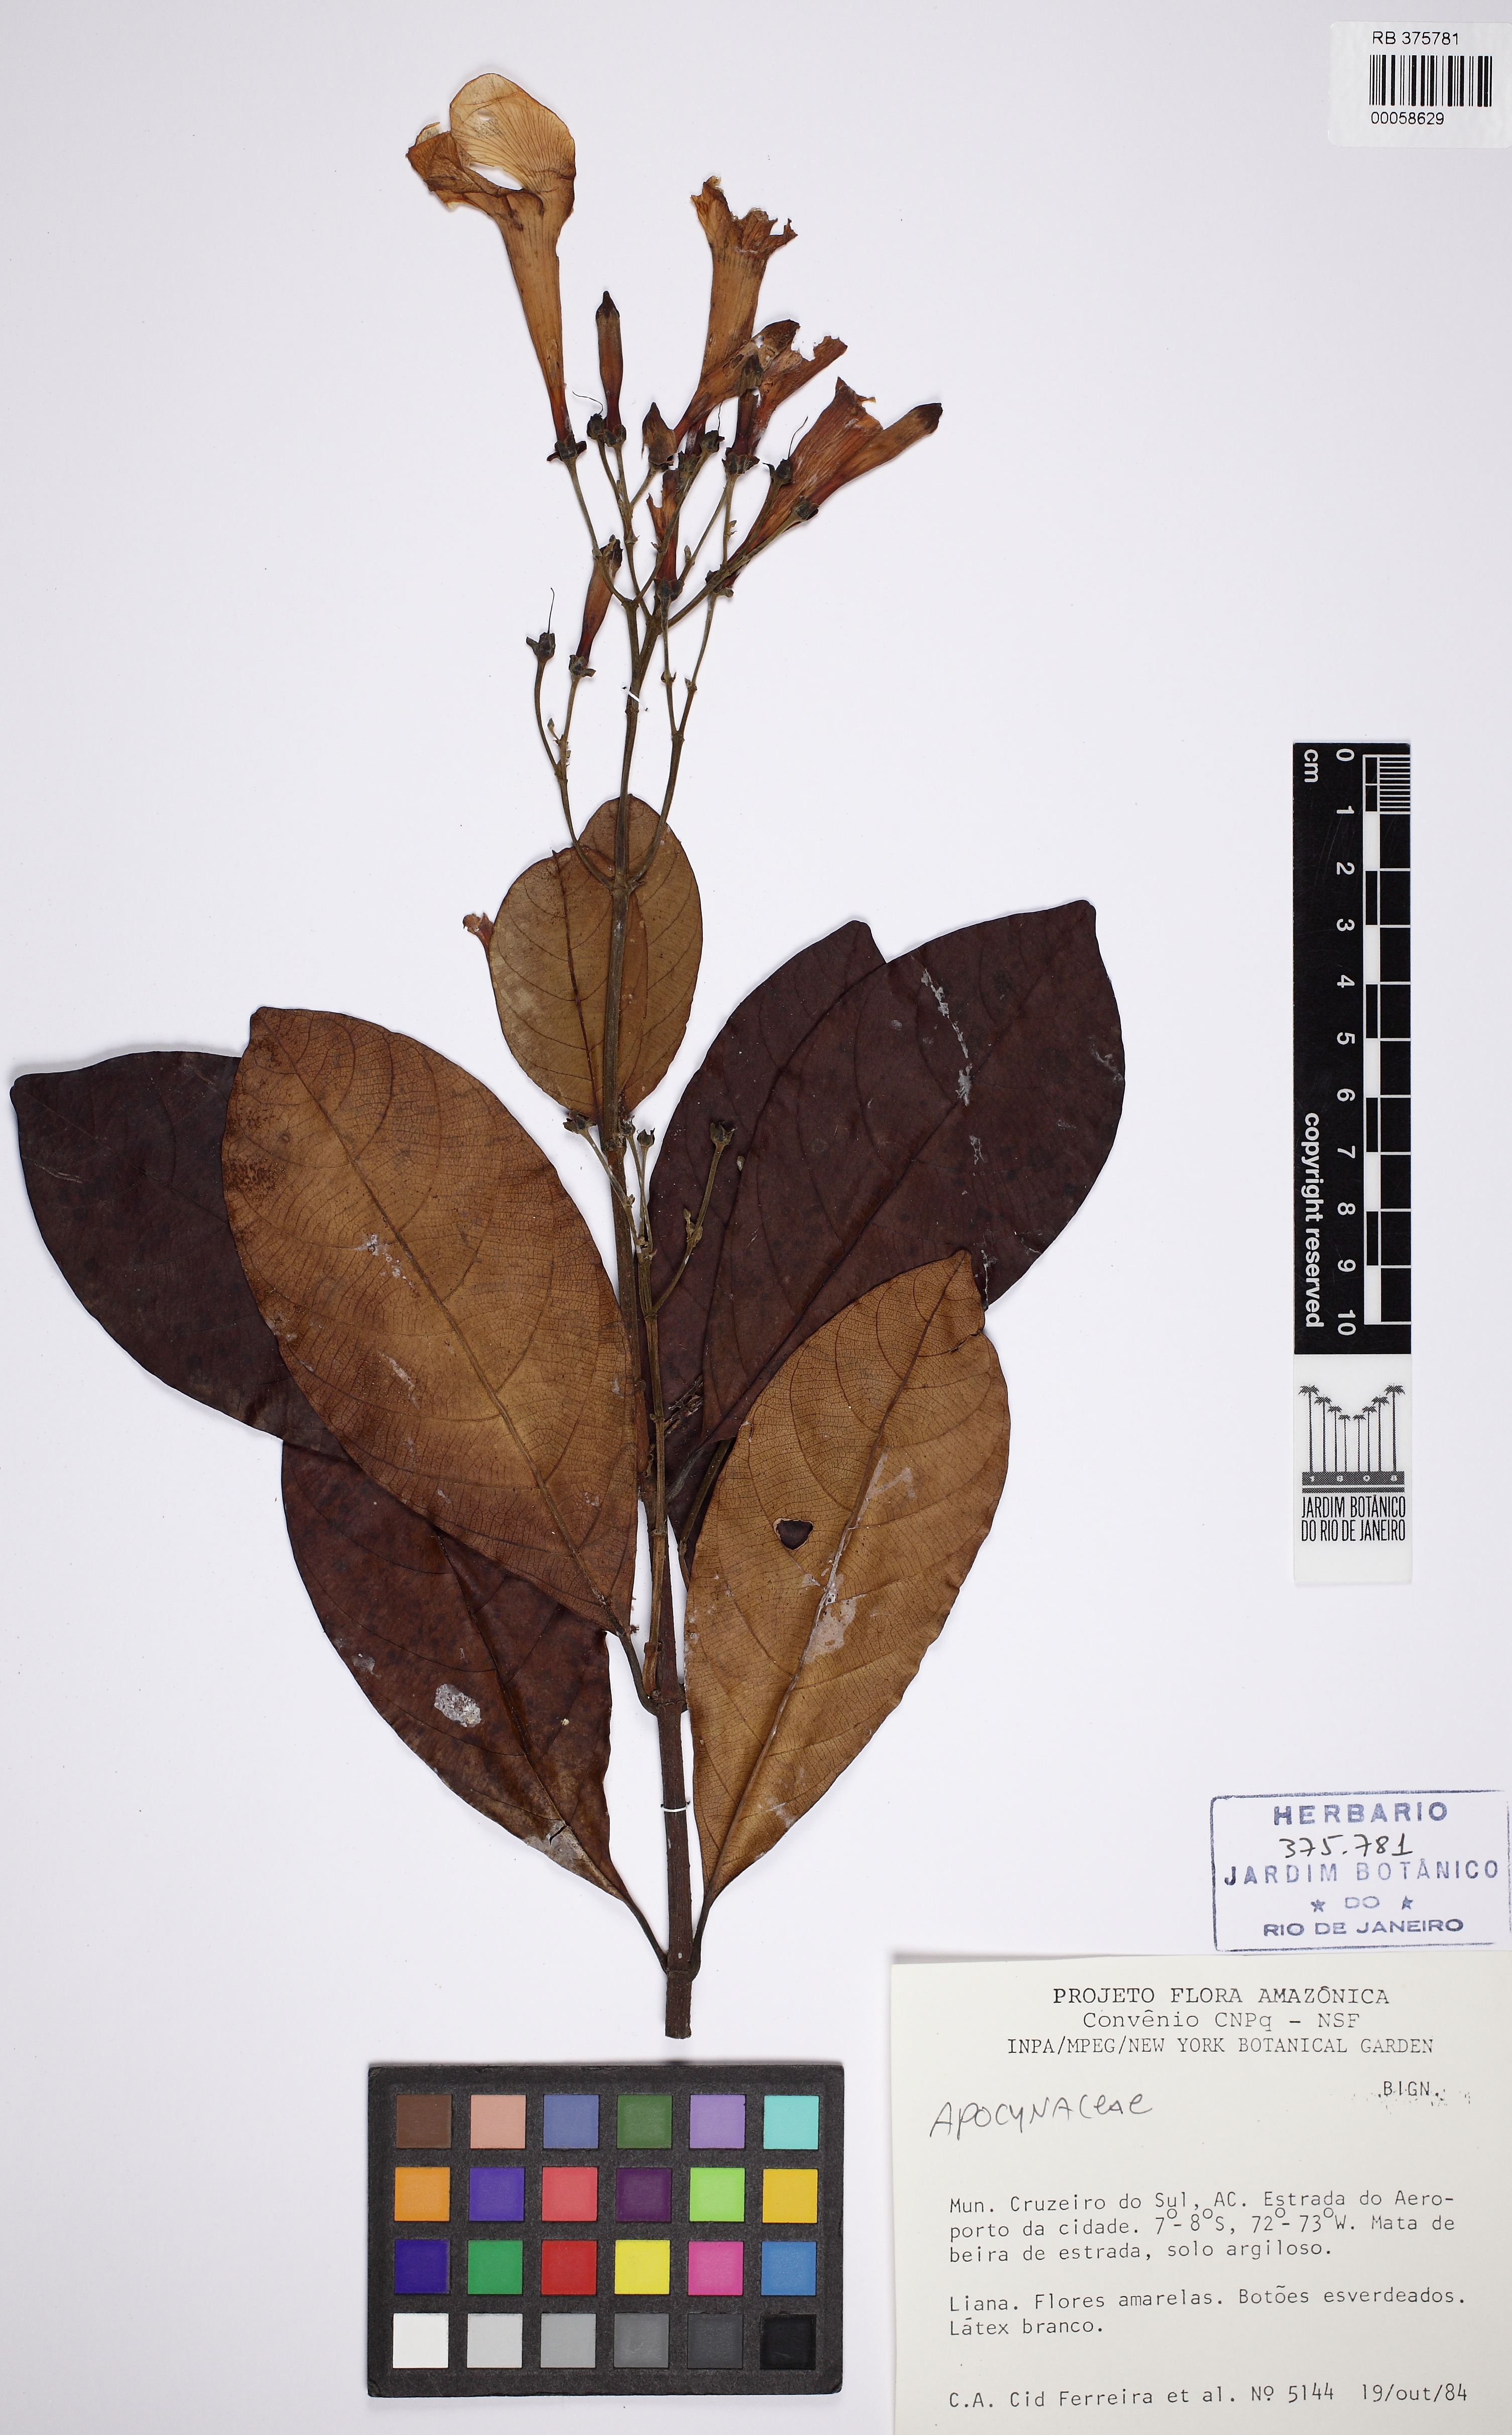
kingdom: Plantae
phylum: Tracheophyta
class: Magnoliopsida
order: Gentianales
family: Apocynaceae
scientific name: Apocynaceae
